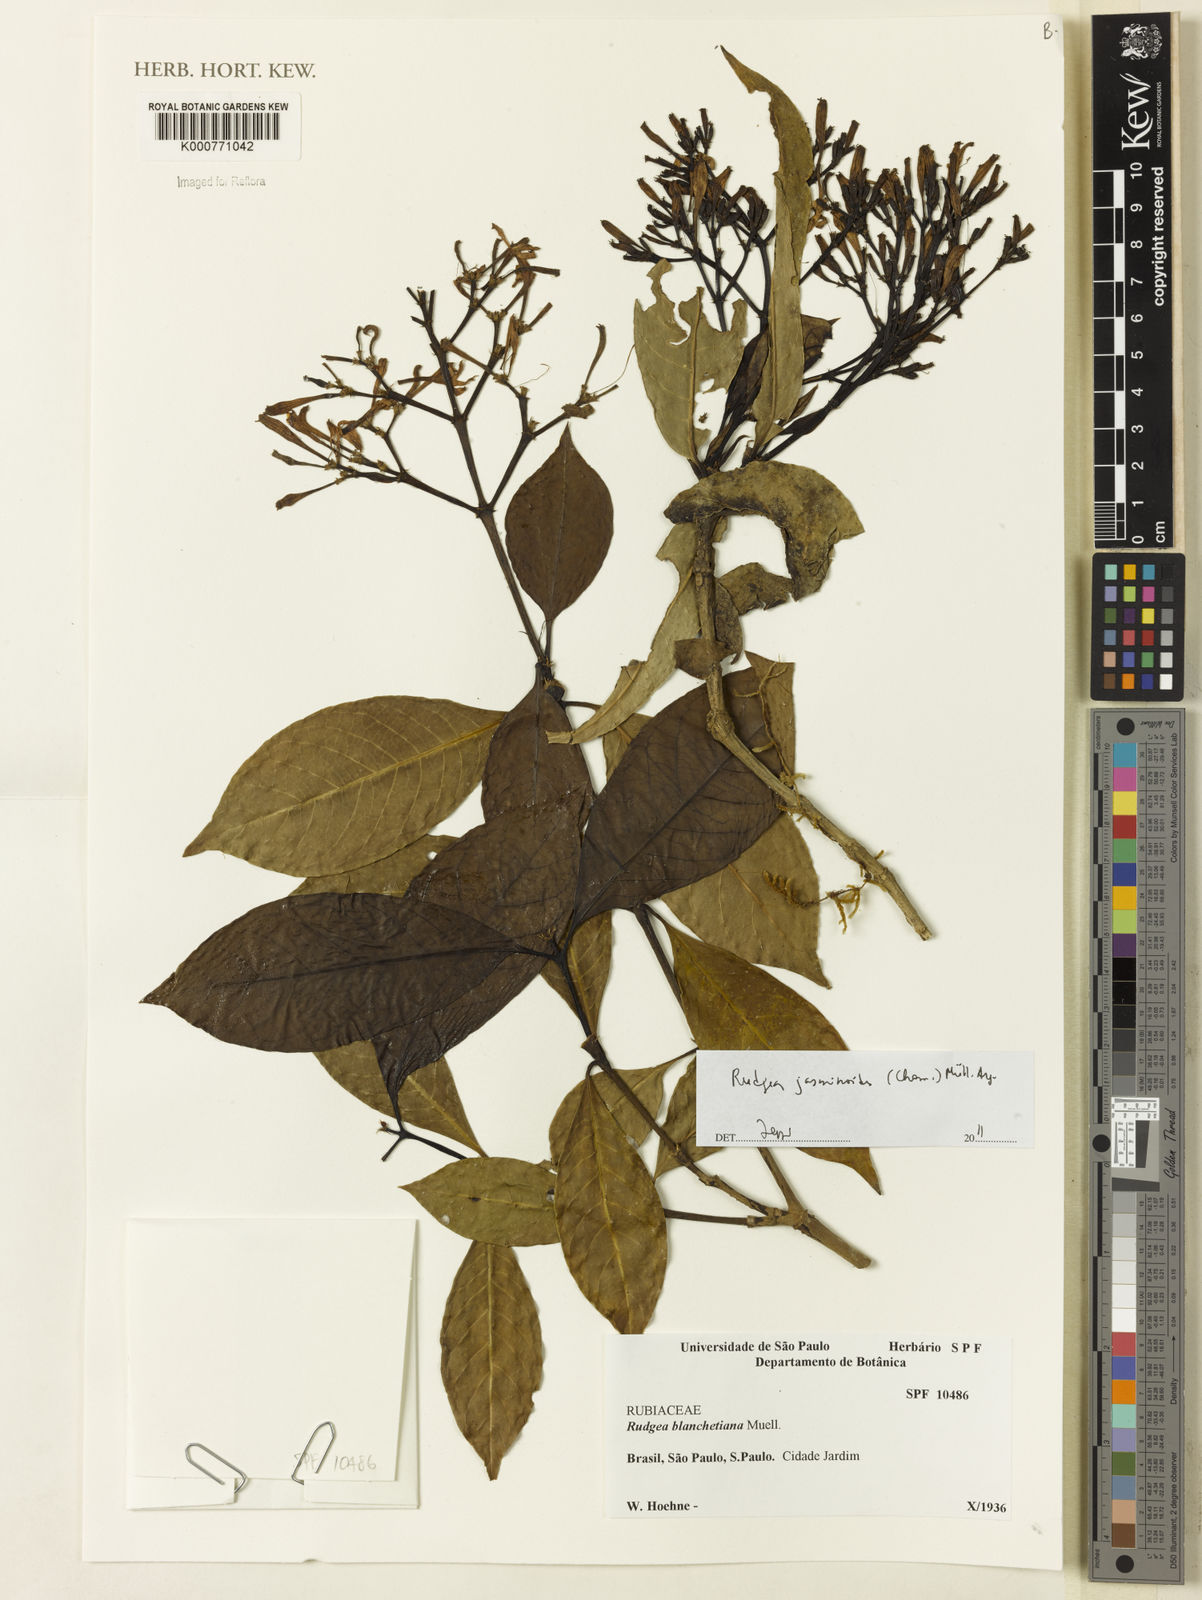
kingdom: Plantae
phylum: Tracheophyta
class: Magnoliopsida
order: Gentianales
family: Rubiaceae
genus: Rudgea
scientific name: Rudgea
